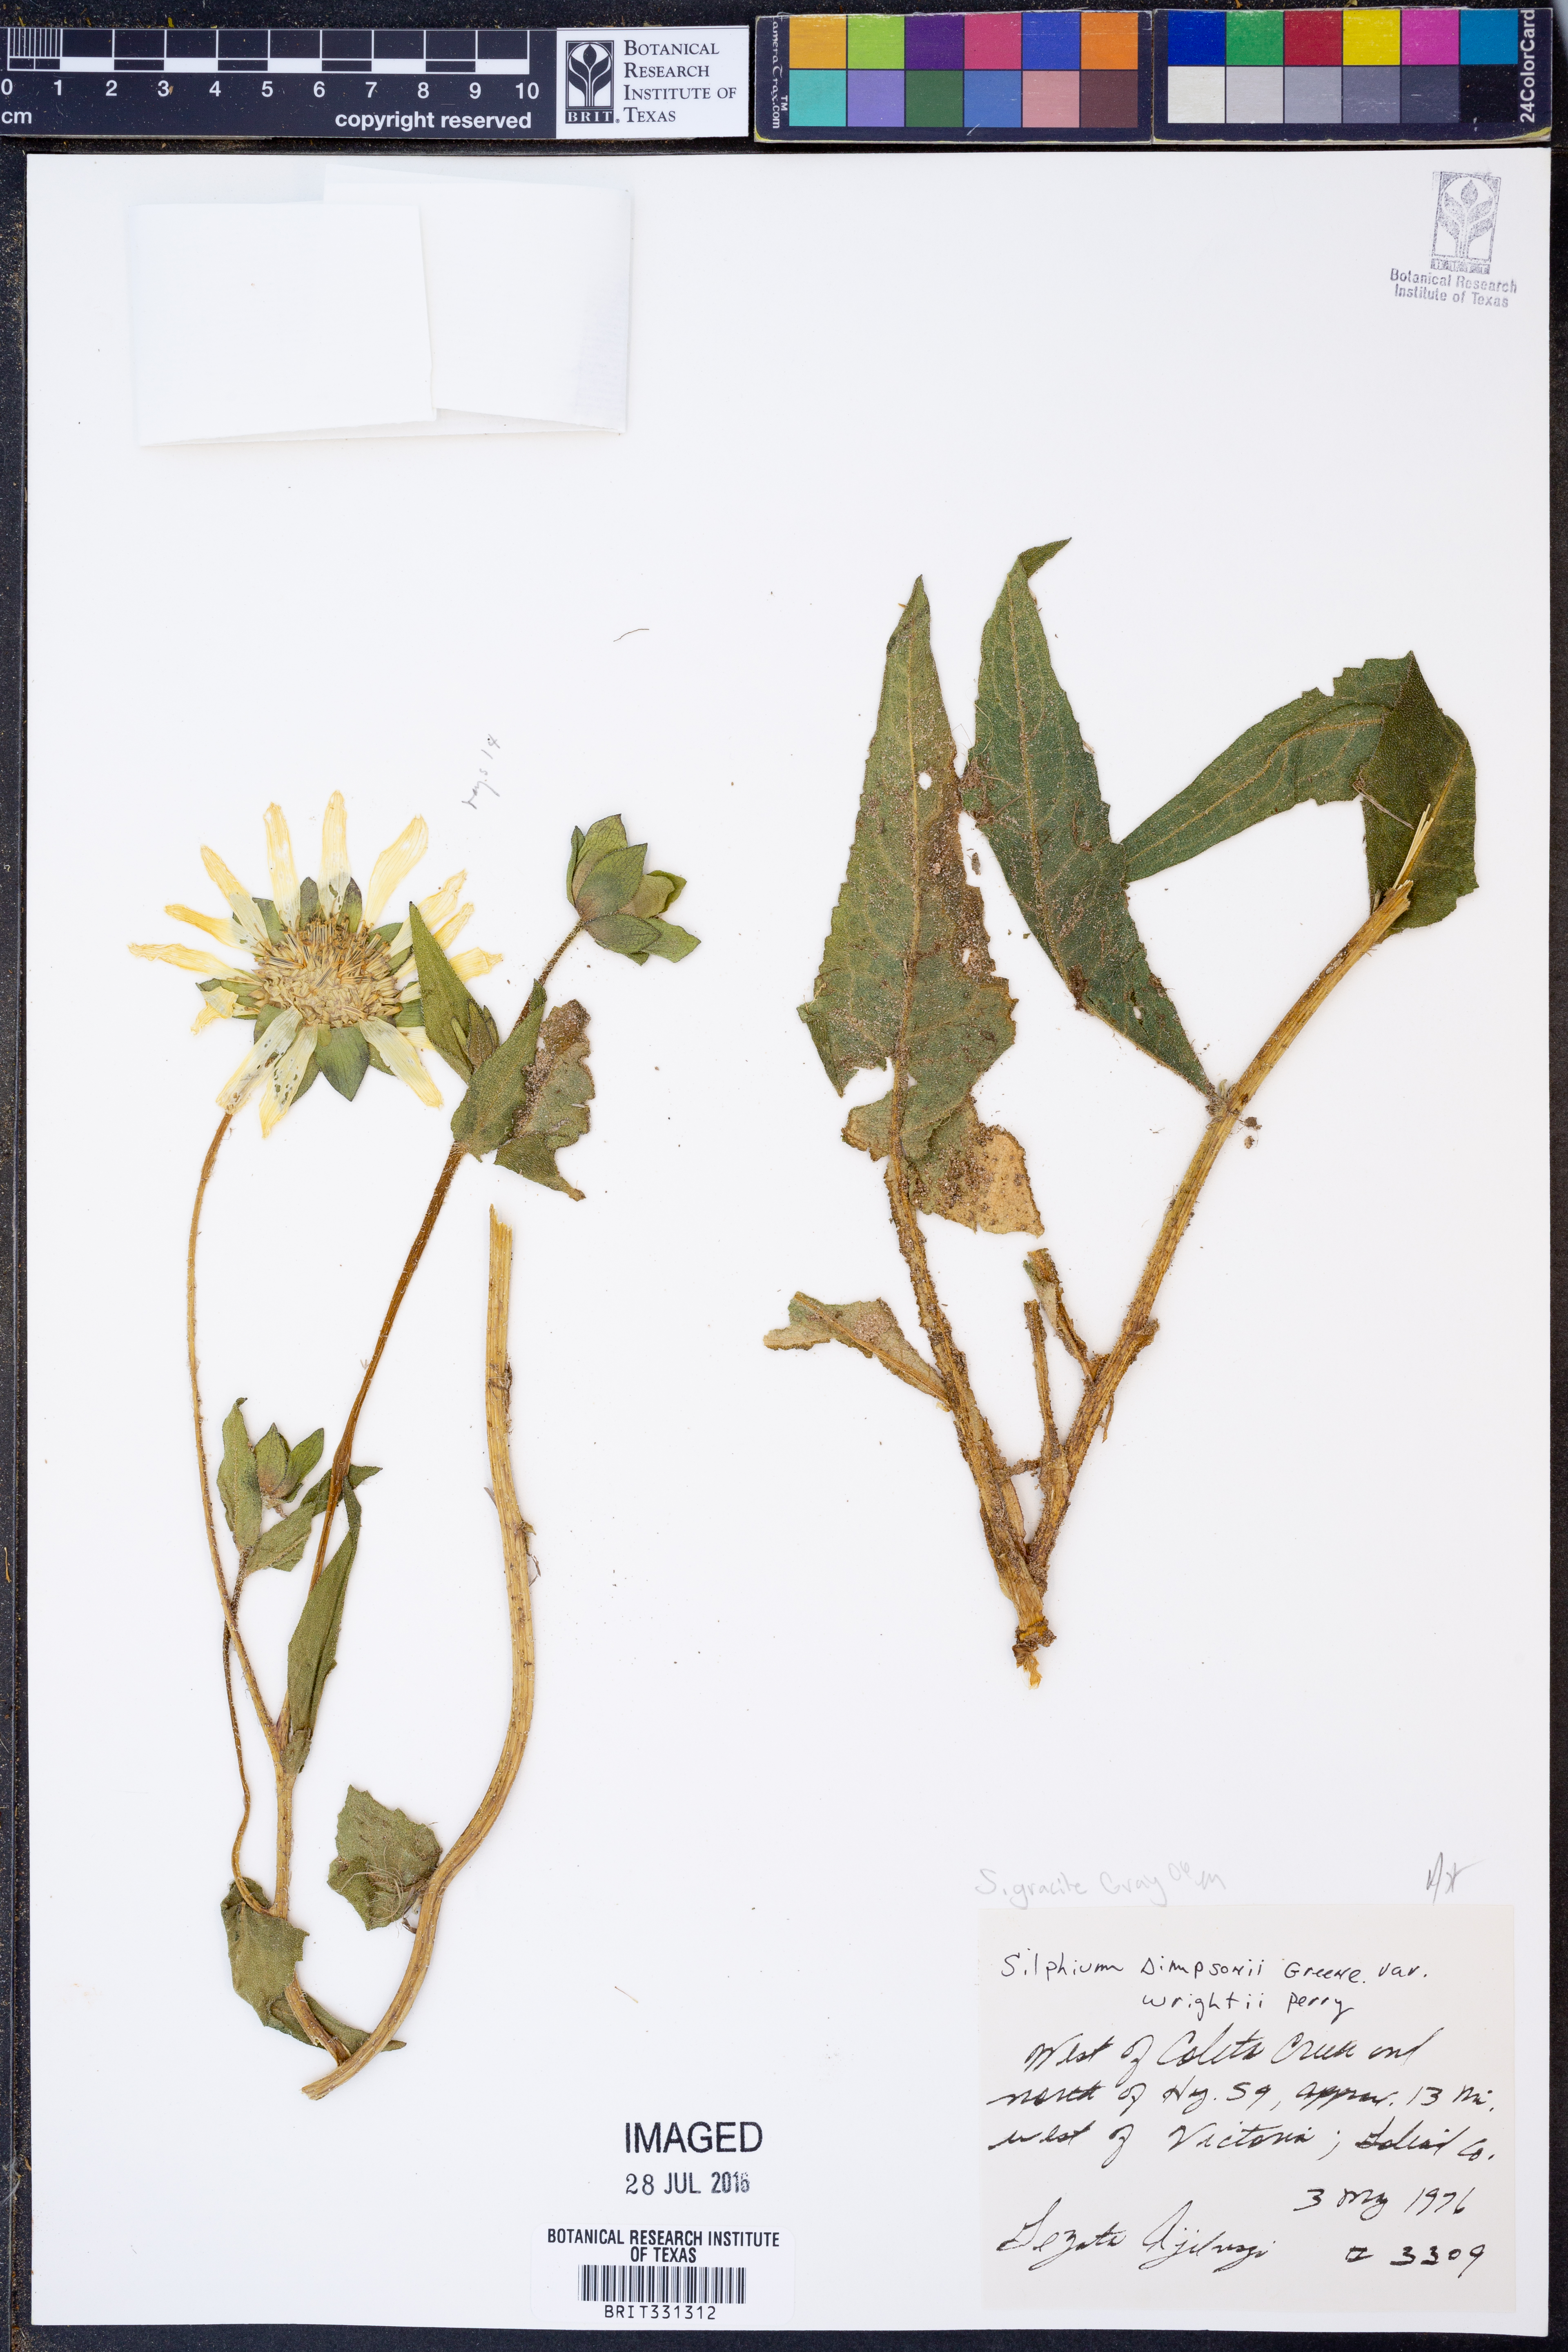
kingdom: Plantae
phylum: Tracheophyta
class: Magnoliopsida
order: Asterales
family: Asteraceae
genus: Silphium
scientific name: Silphium radula
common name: Roughleaf rosinweed
